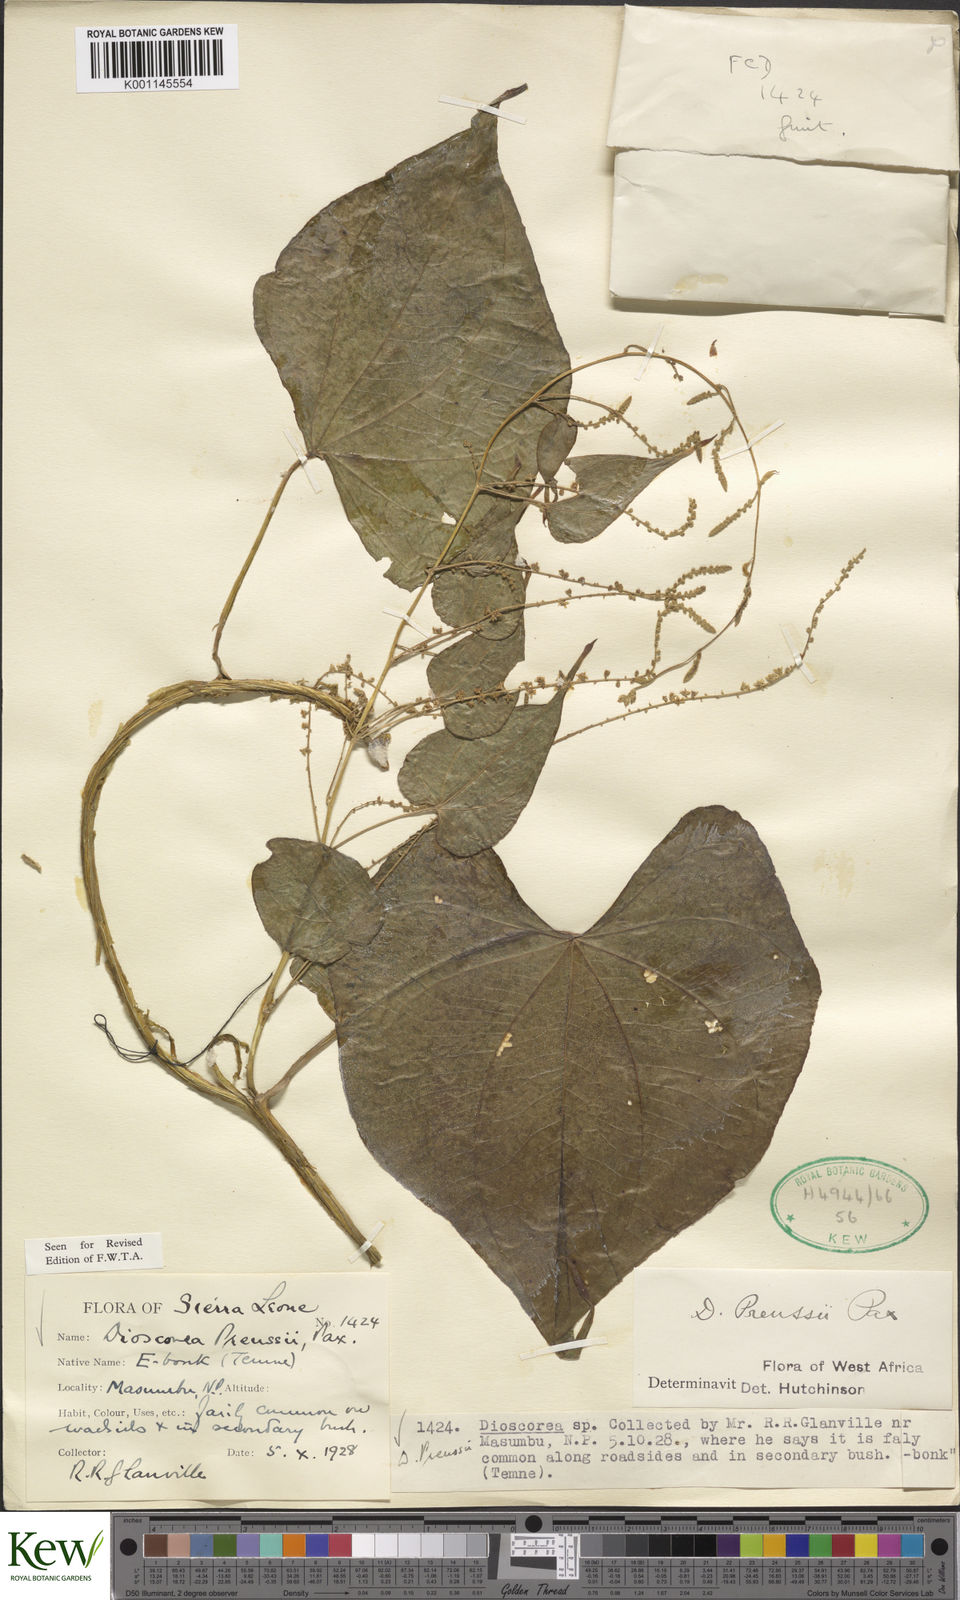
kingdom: Plantae
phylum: Tracheophyta
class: Liliopsida
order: Dioscoreales
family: Dioscoreaceae
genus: Dioscorea
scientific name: Dioscorea preussii
